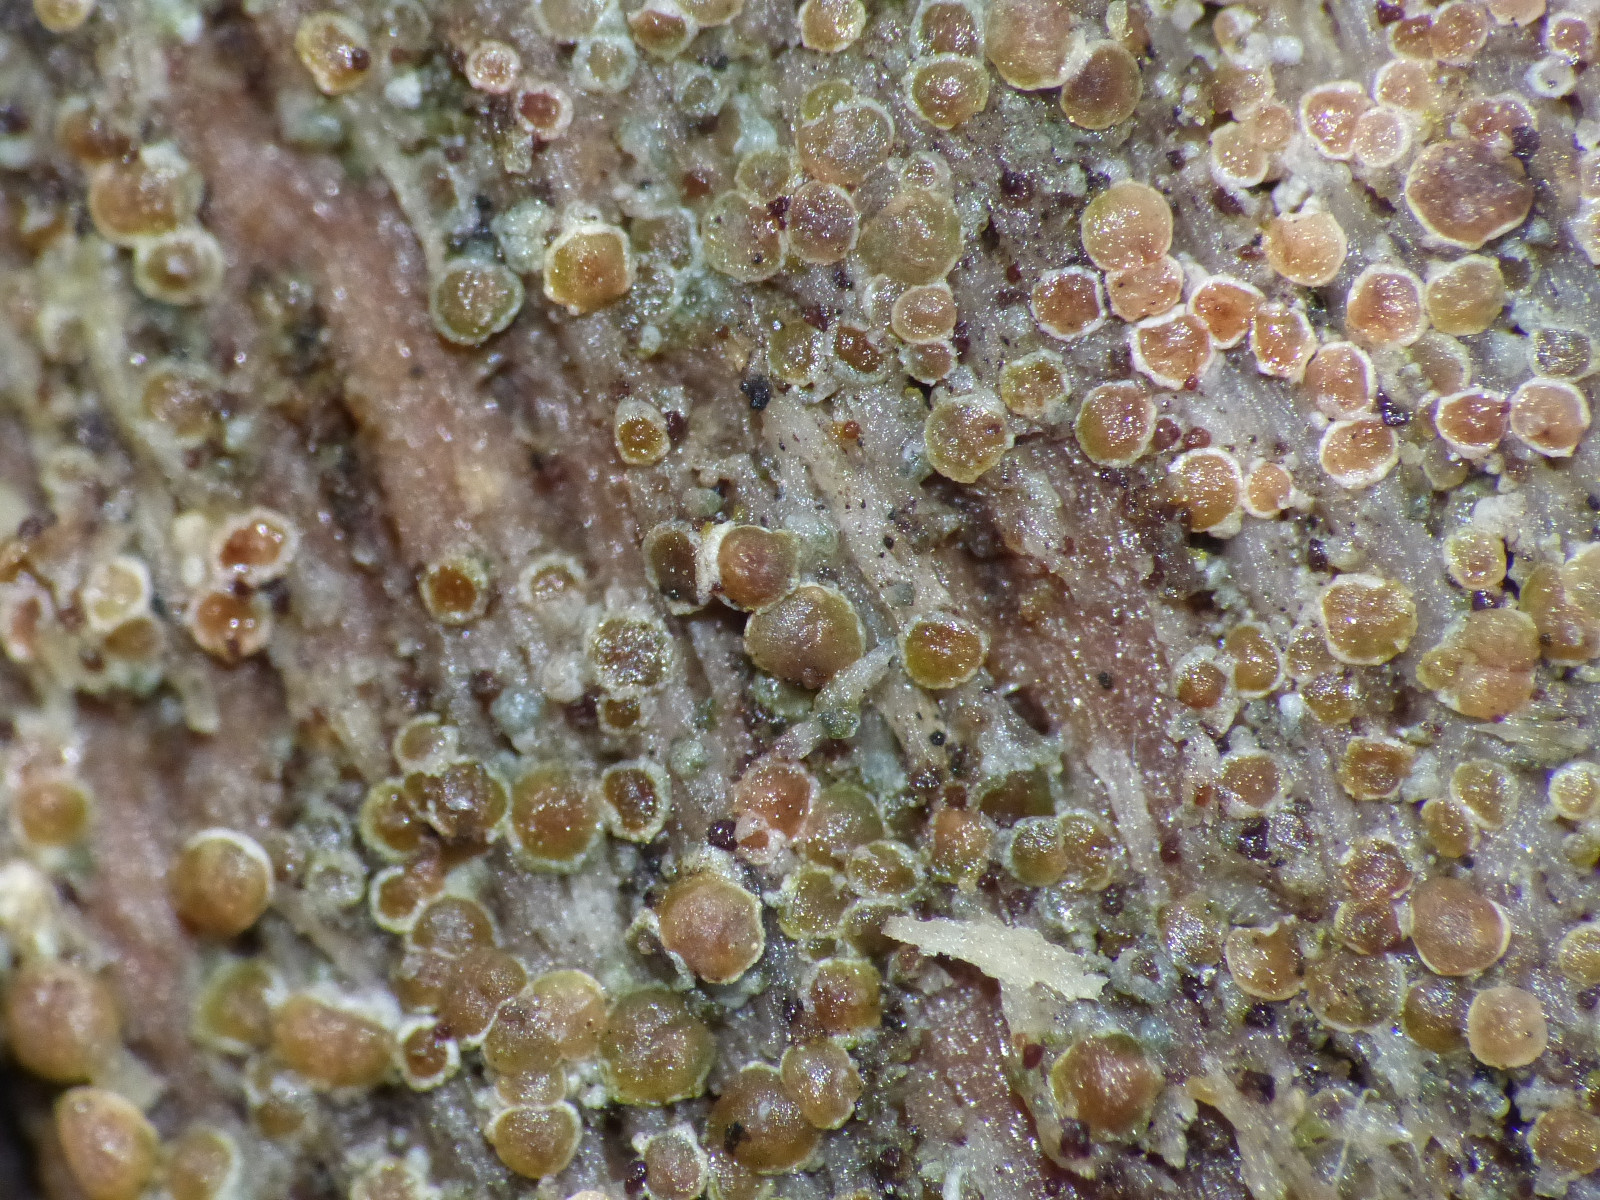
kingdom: Fungi
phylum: Ascomycota
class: Lecanoromycetes
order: Lecanorales
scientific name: Lecanorales
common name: skivelavordenen
